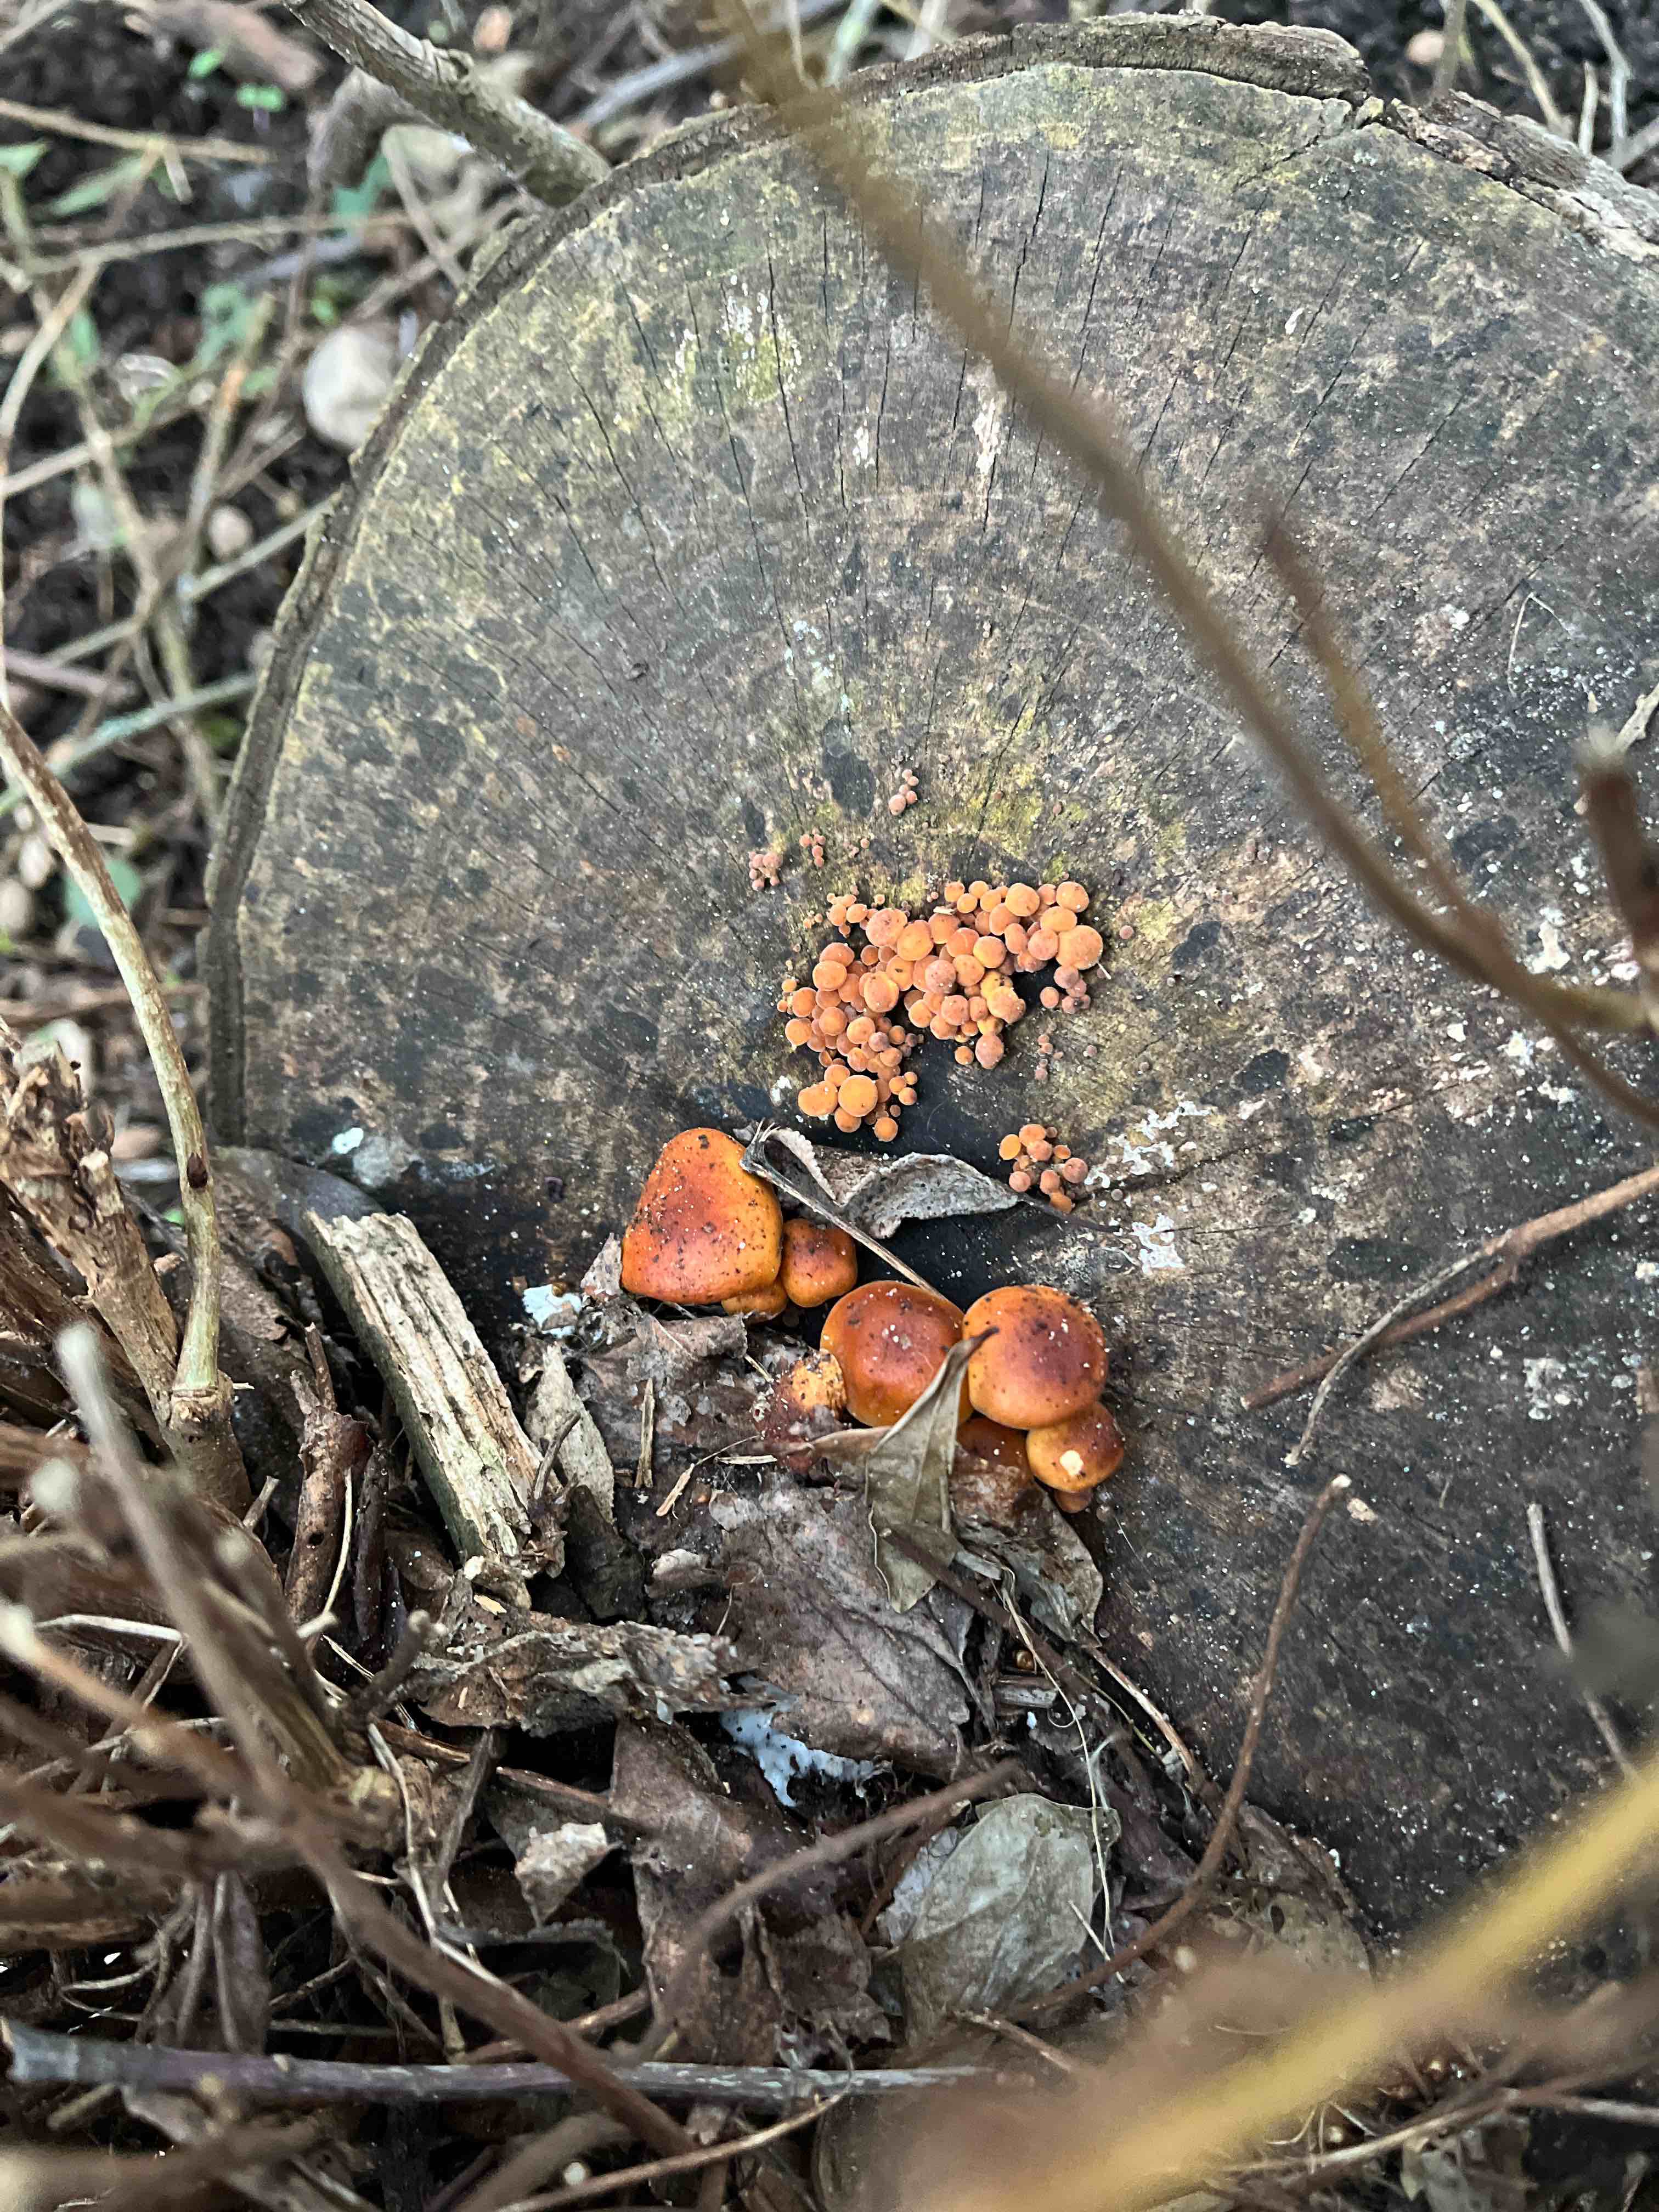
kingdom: Fungi
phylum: Basidiomycota
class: Agaricomycetes
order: Agaricales
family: Physalacriaceae
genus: Flammulina
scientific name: Flammulina velutipes
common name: gul fløjlsfod
